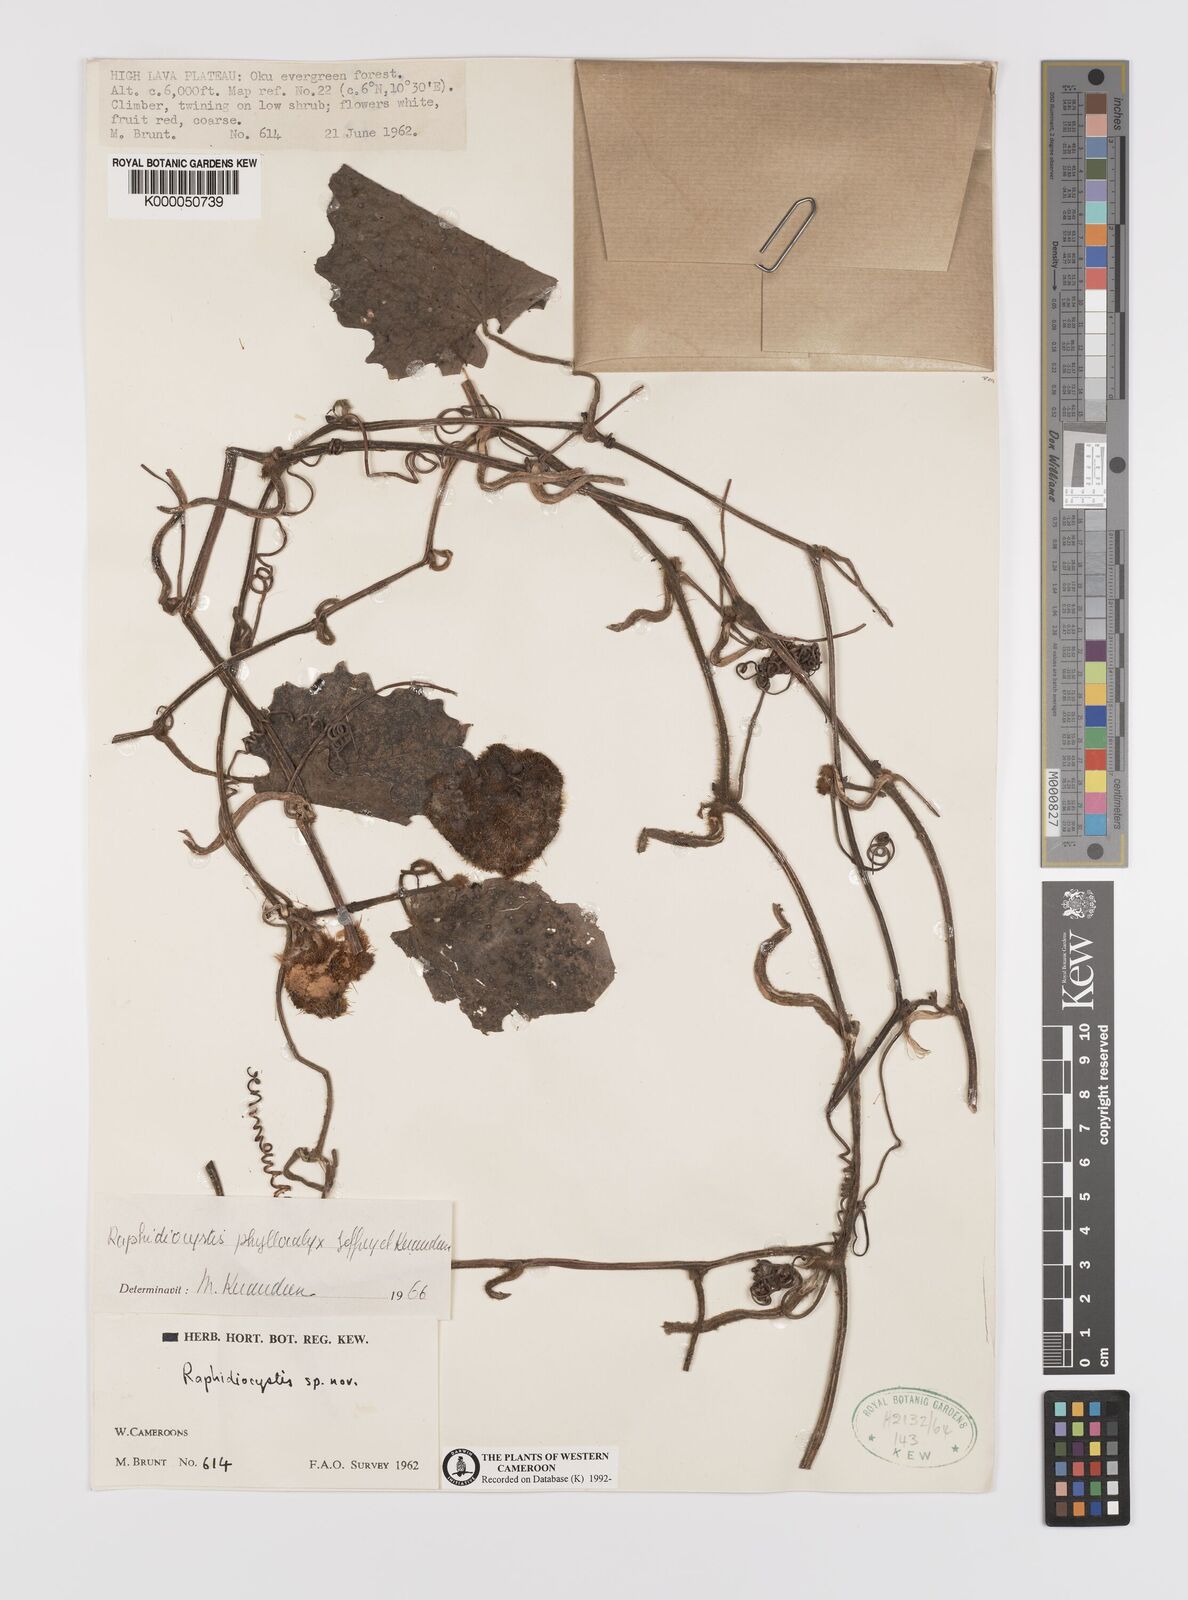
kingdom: Plantae
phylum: Tracheophyta
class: Magnoliopsida
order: Cucurbitales
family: Cucurbitaceae
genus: Raphidiocystis
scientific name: Raphidiocystis phyllocalyx
